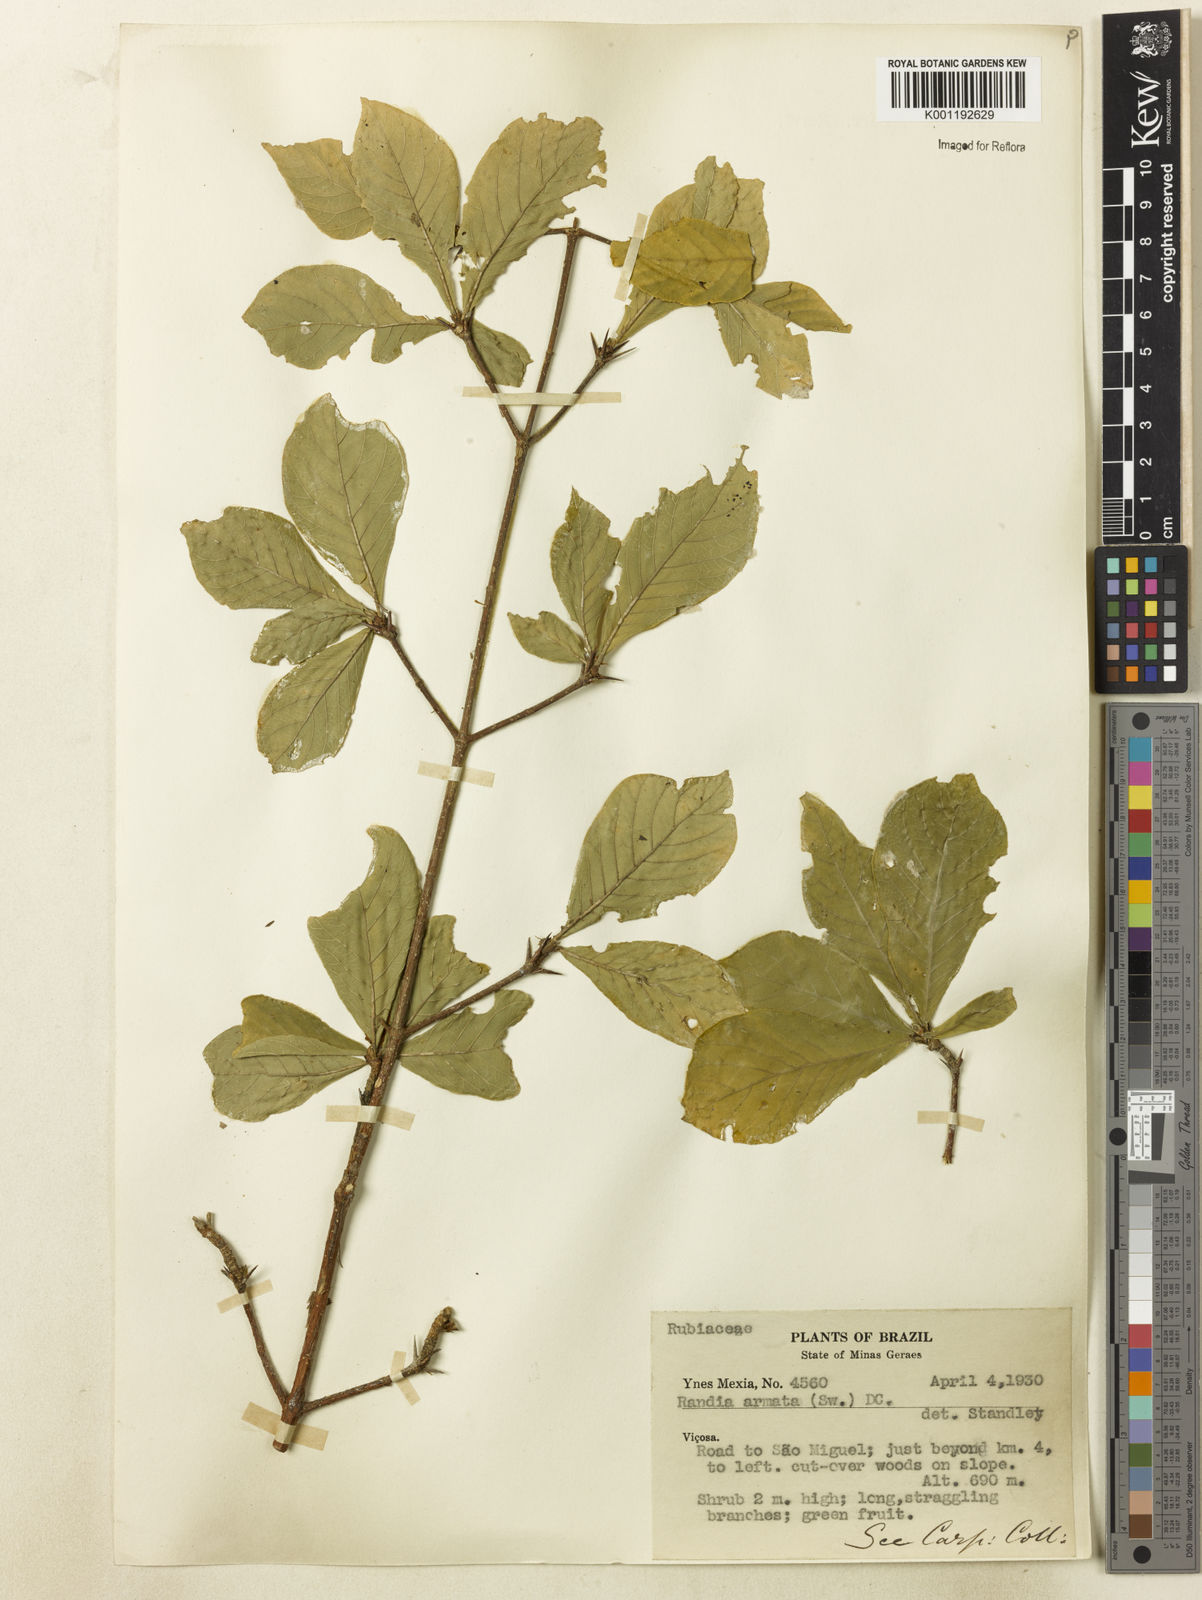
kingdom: Plantae
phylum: Tracheophyta
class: Magnoliopsida
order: Gentianales
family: Rubiaceae
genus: Randia
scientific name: Randia armata
